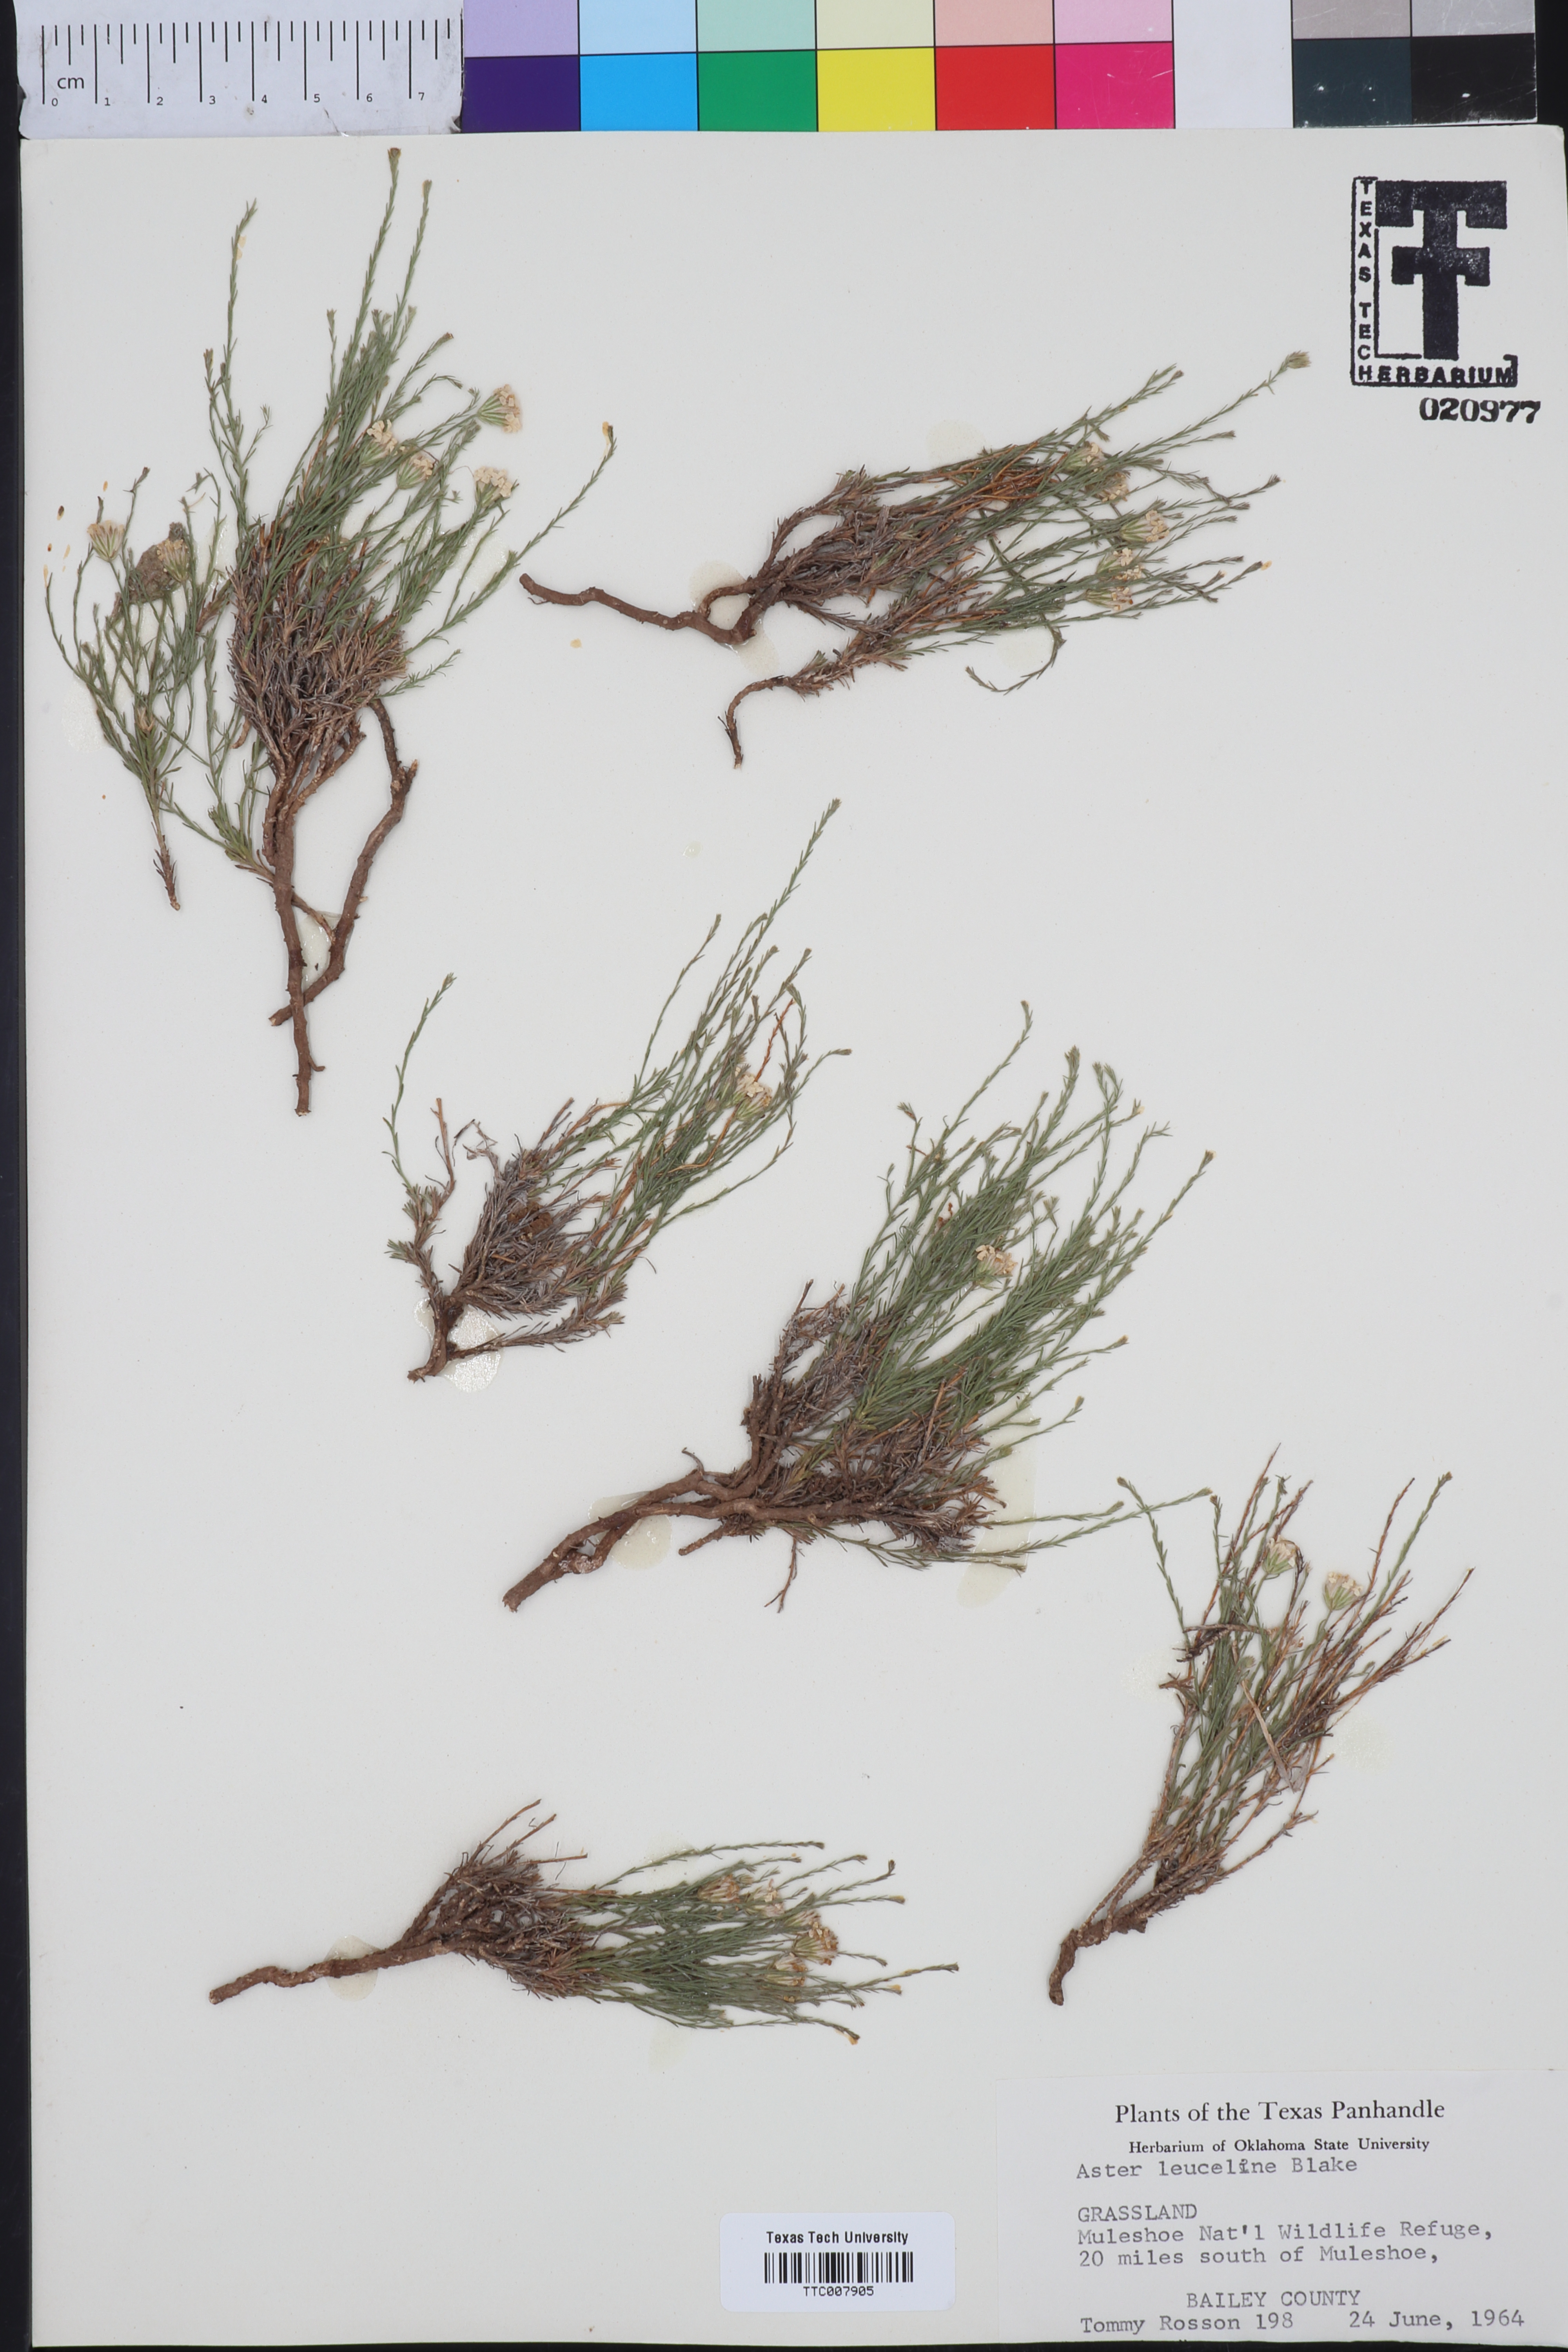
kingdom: Plantae
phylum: Tracheophyta
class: Magnoliopsida
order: Asterales
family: Asteraceae
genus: Chaetopappa
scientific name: Chaetopappa ericoides
